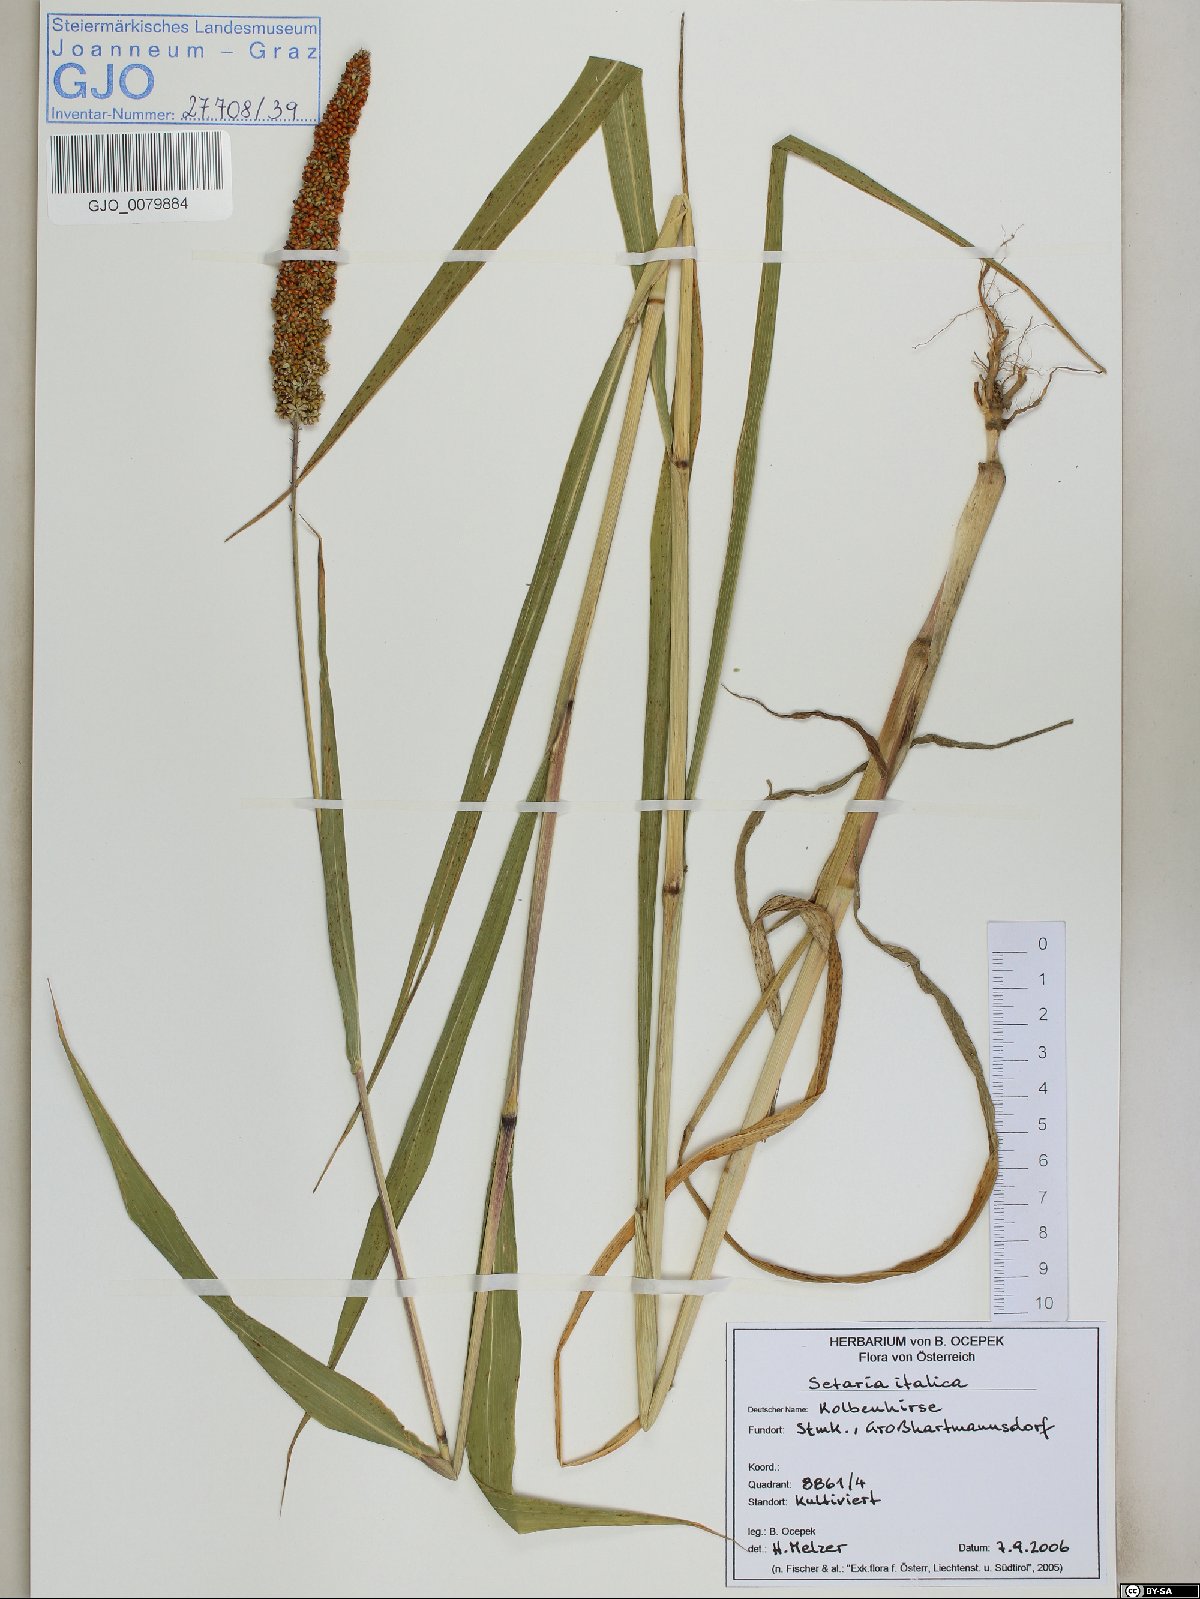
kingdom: Plantae
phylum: Tracheophyta
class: Liliopsida
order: Poales
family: Poaceae
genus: Setaria
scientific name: Setaria italica
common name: Foxtail bristle-grass
